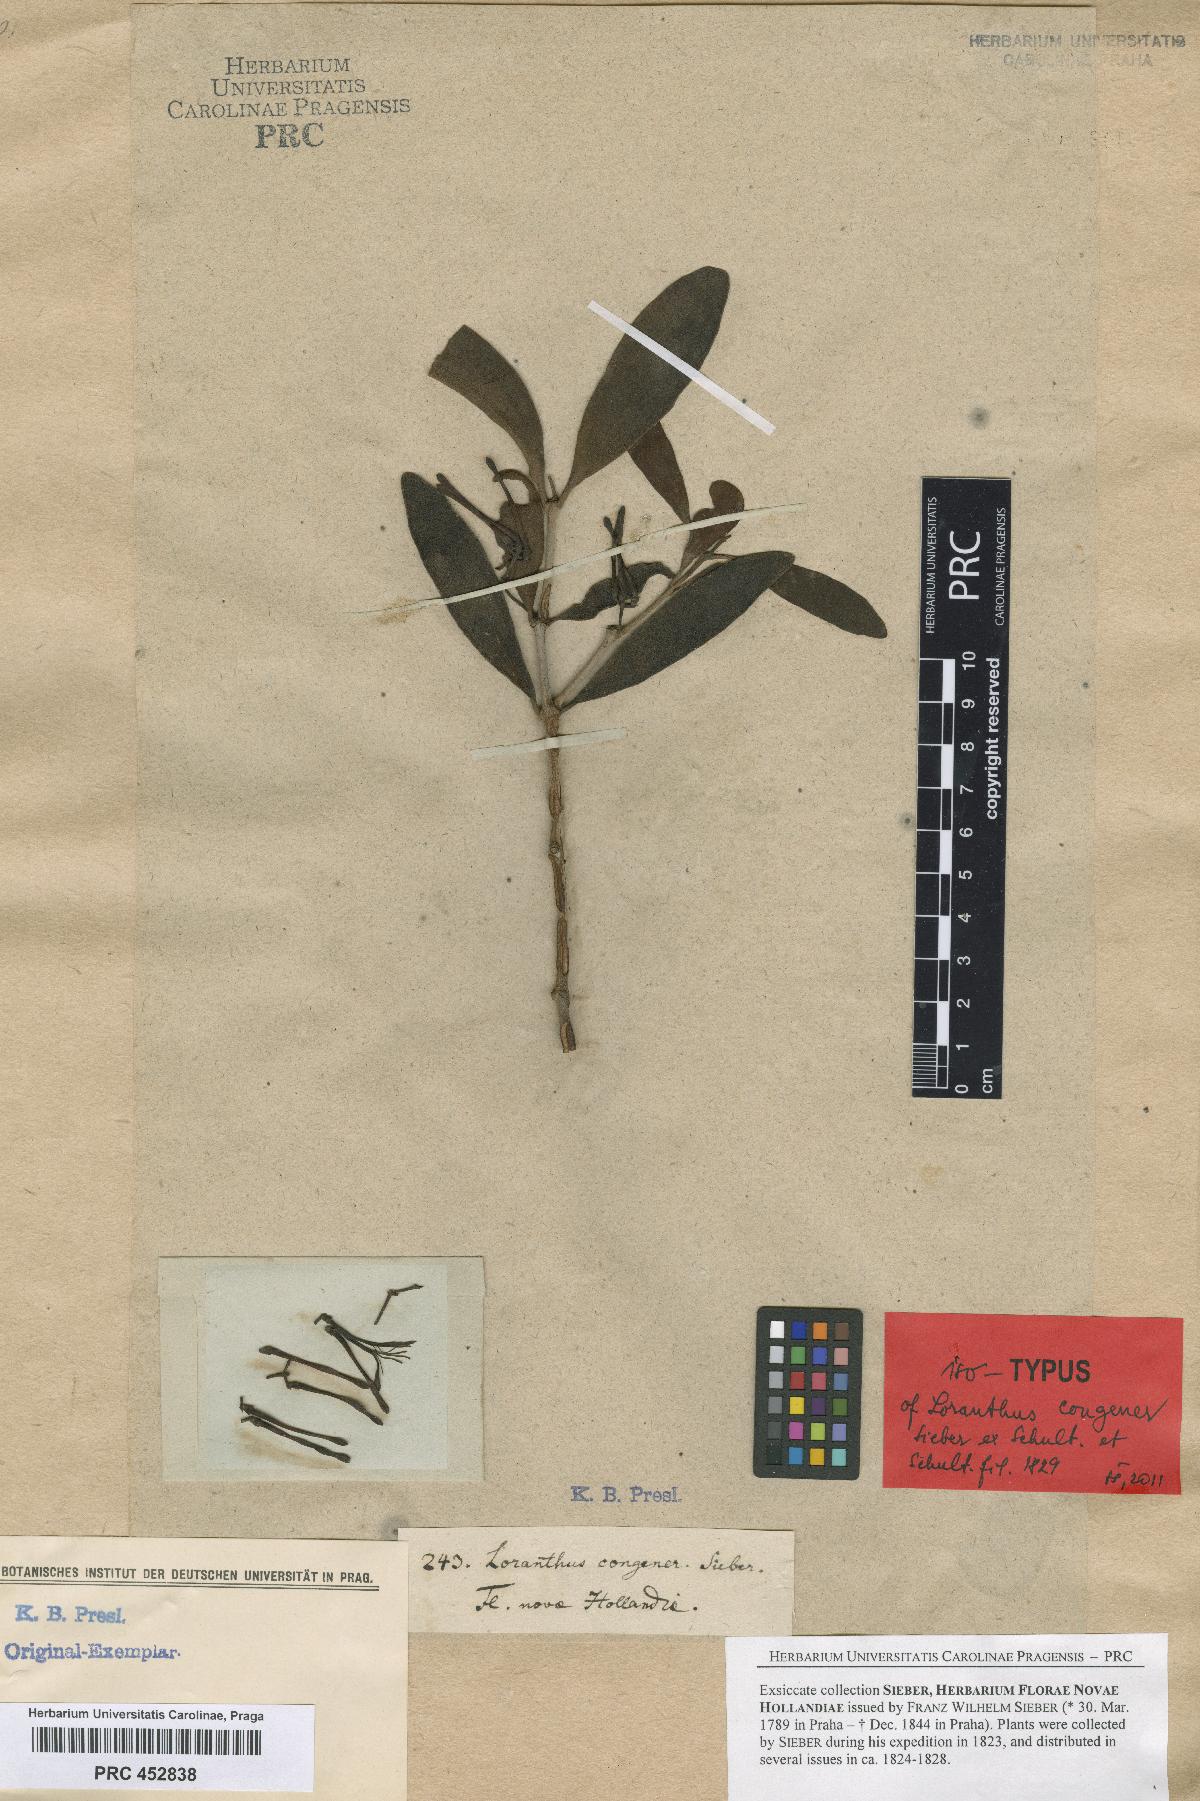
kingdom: Plantae
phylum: Tracheophyta
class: Magnoliopsida
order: Santalales
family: Loranthaceae
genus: Amyema
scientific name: Amyema congener
